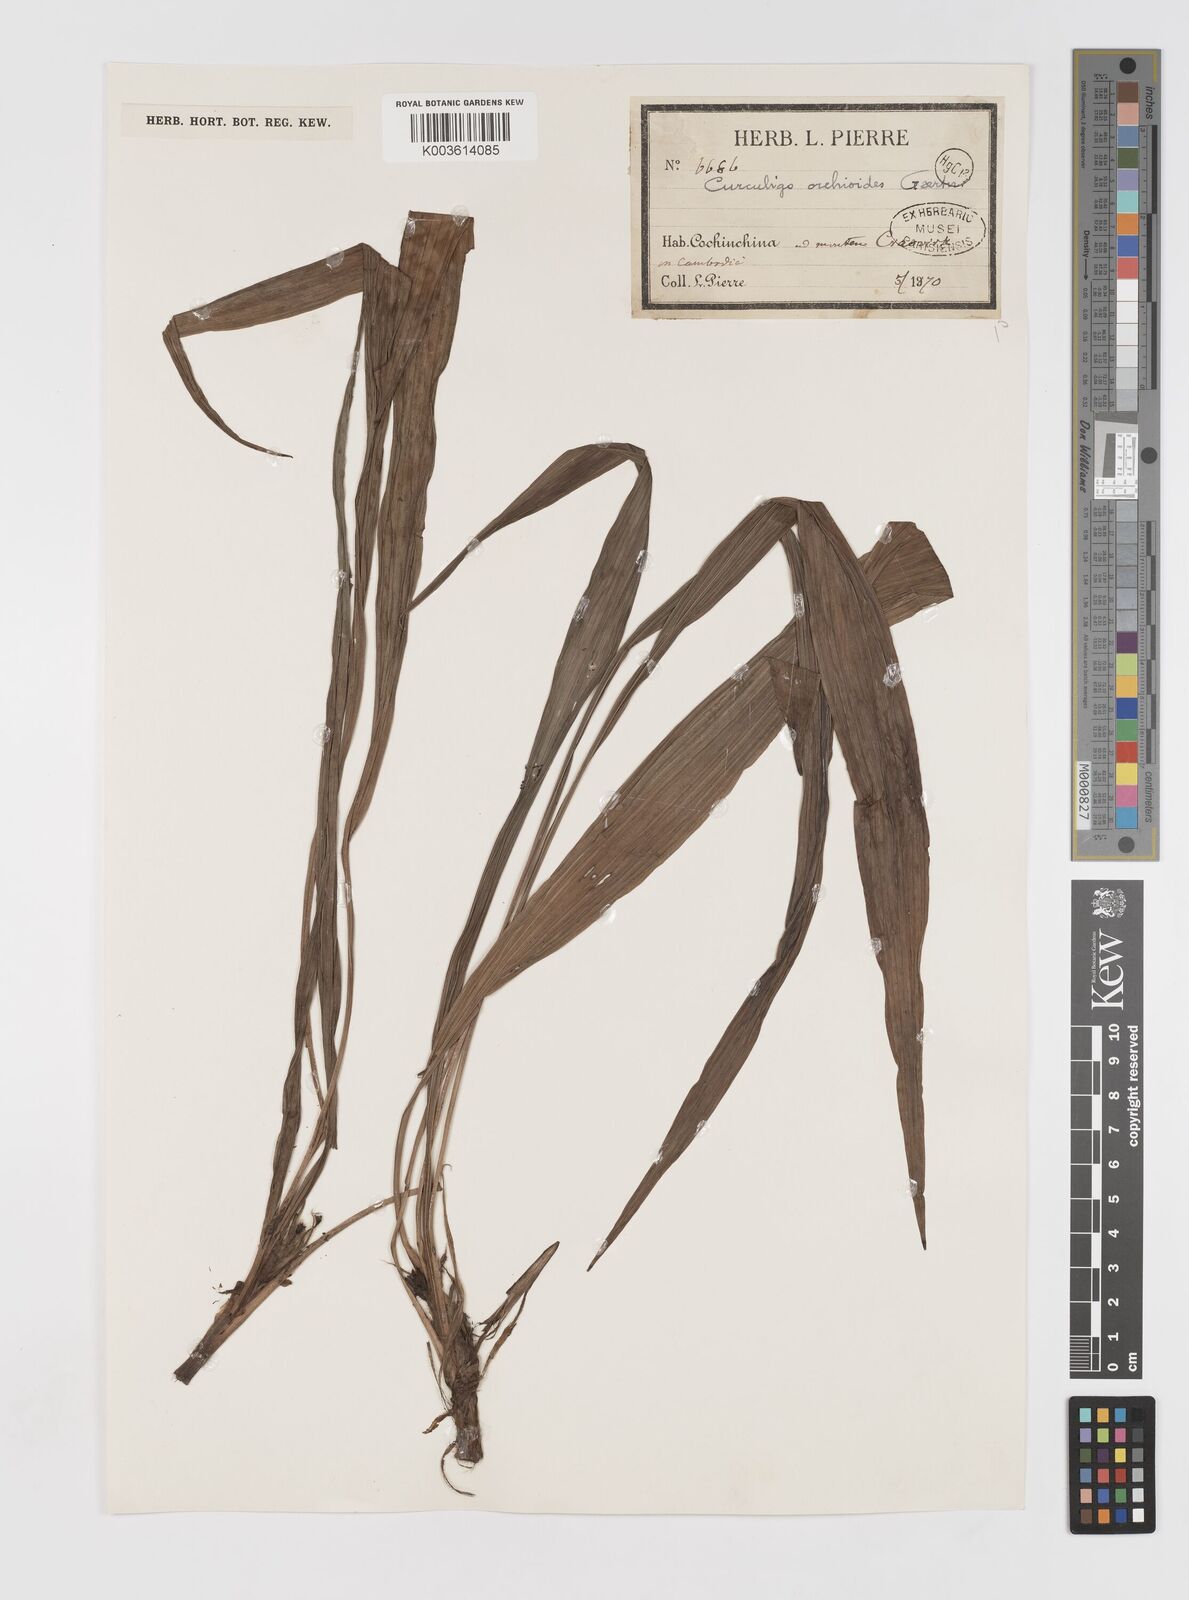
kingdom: Plantae
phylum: Tracheophyta
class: Liliopsida
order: Asparagales
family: Hypoxidaceae
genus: Curculigo
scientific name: Curculigo orchioides
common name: Golden eye-grass
